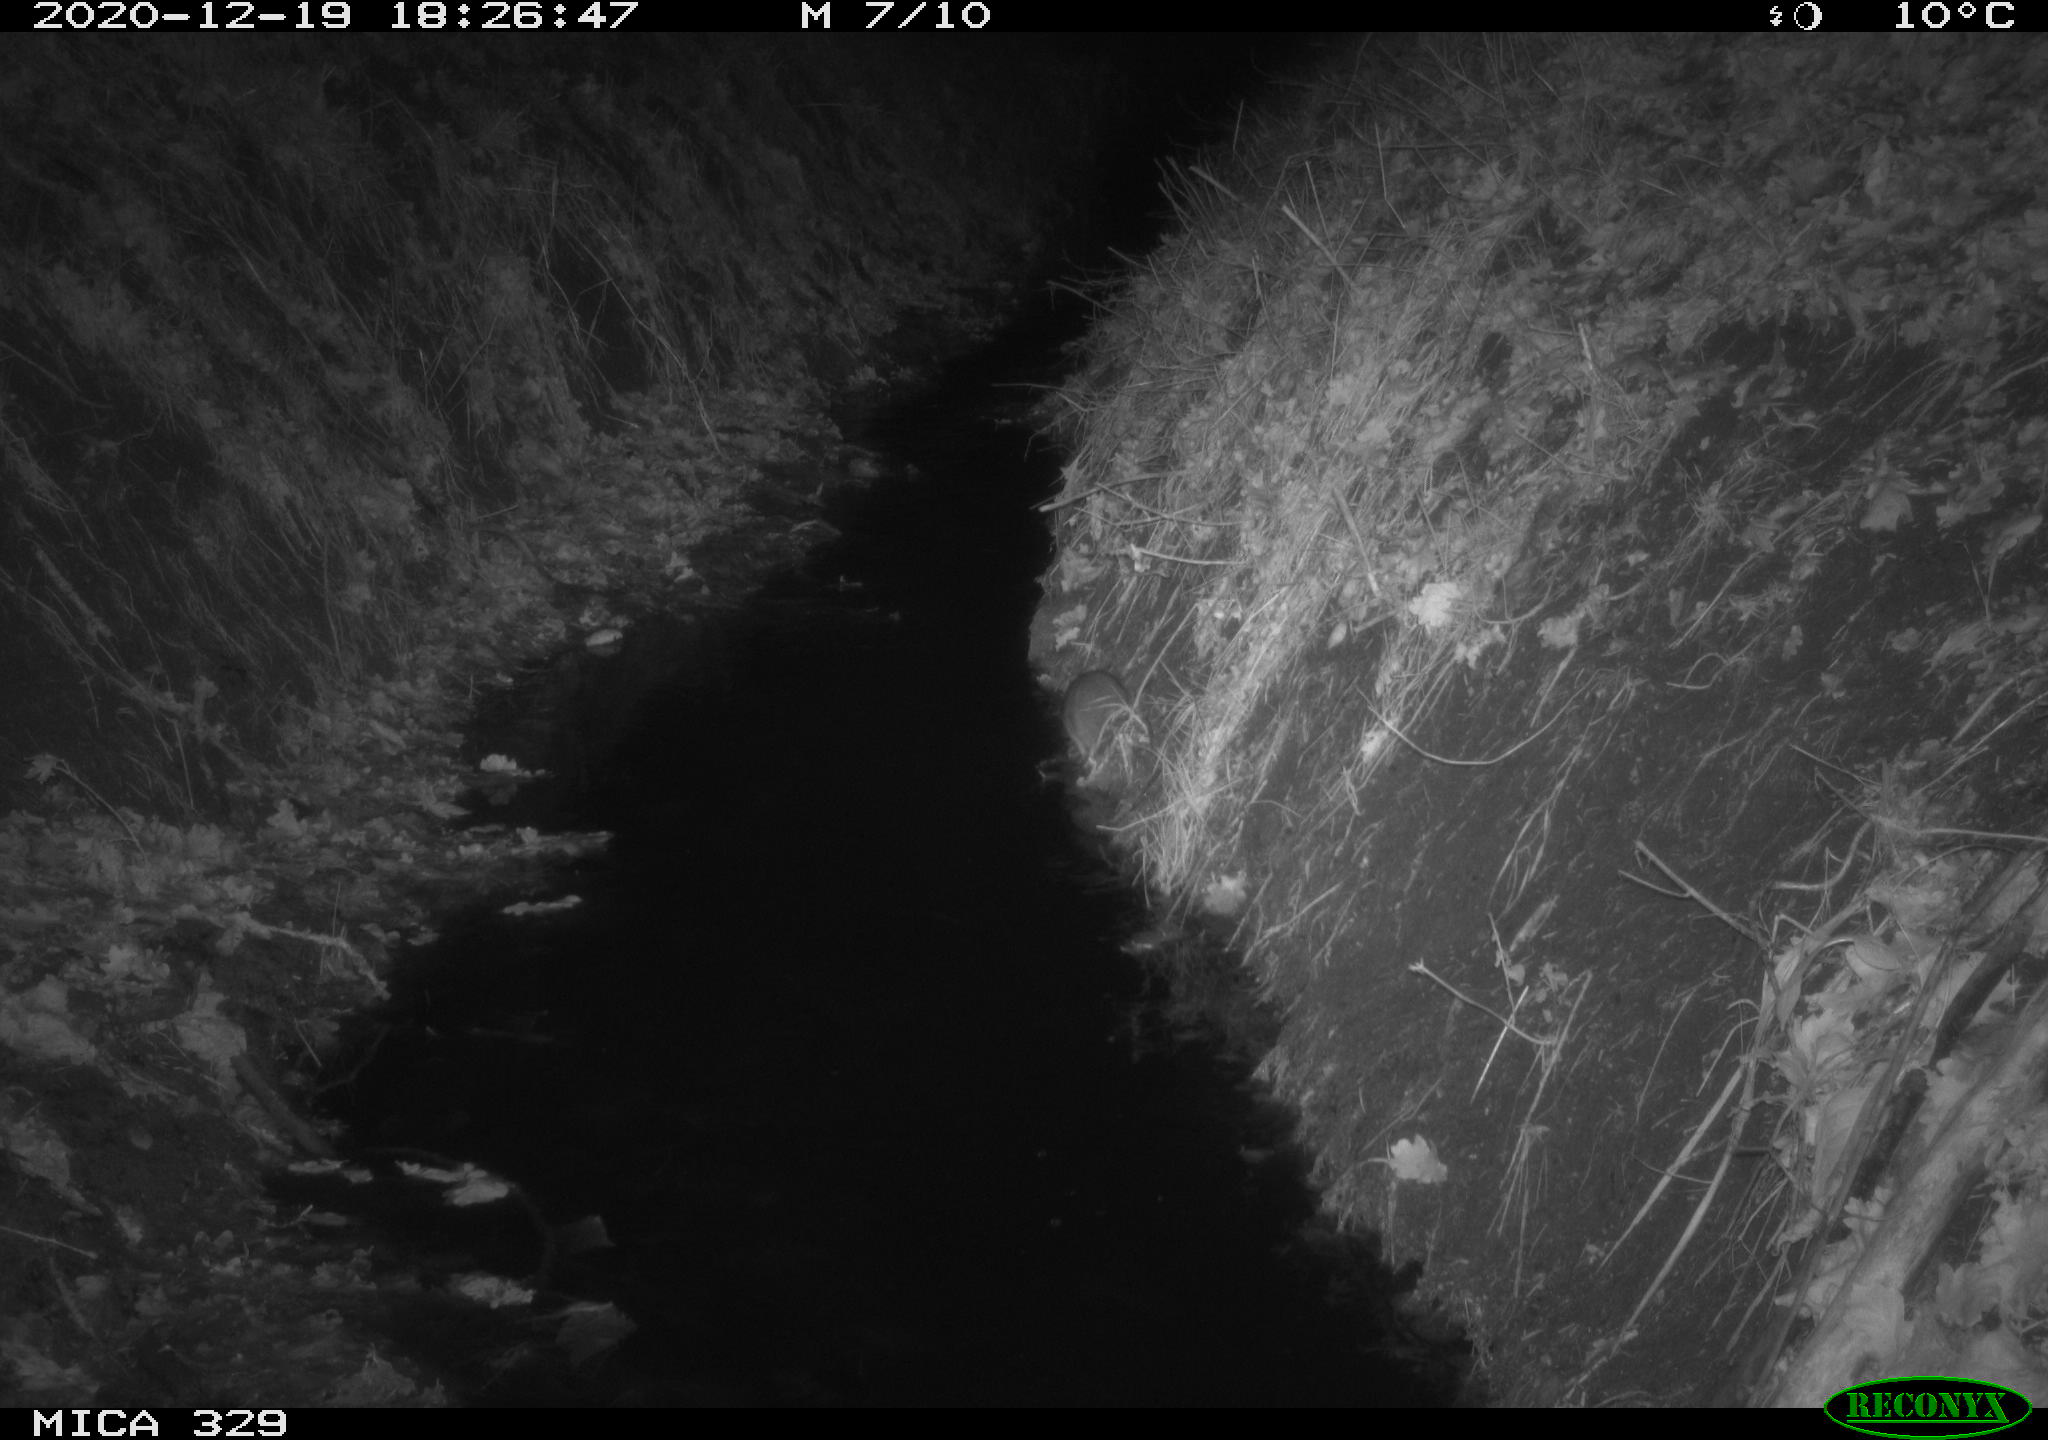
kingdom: Animalia
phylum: Chordata
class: Mammalia
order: Rodentia
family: Muridae
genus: Rattus
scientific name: Rattus norvegicus
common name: Brown rat
